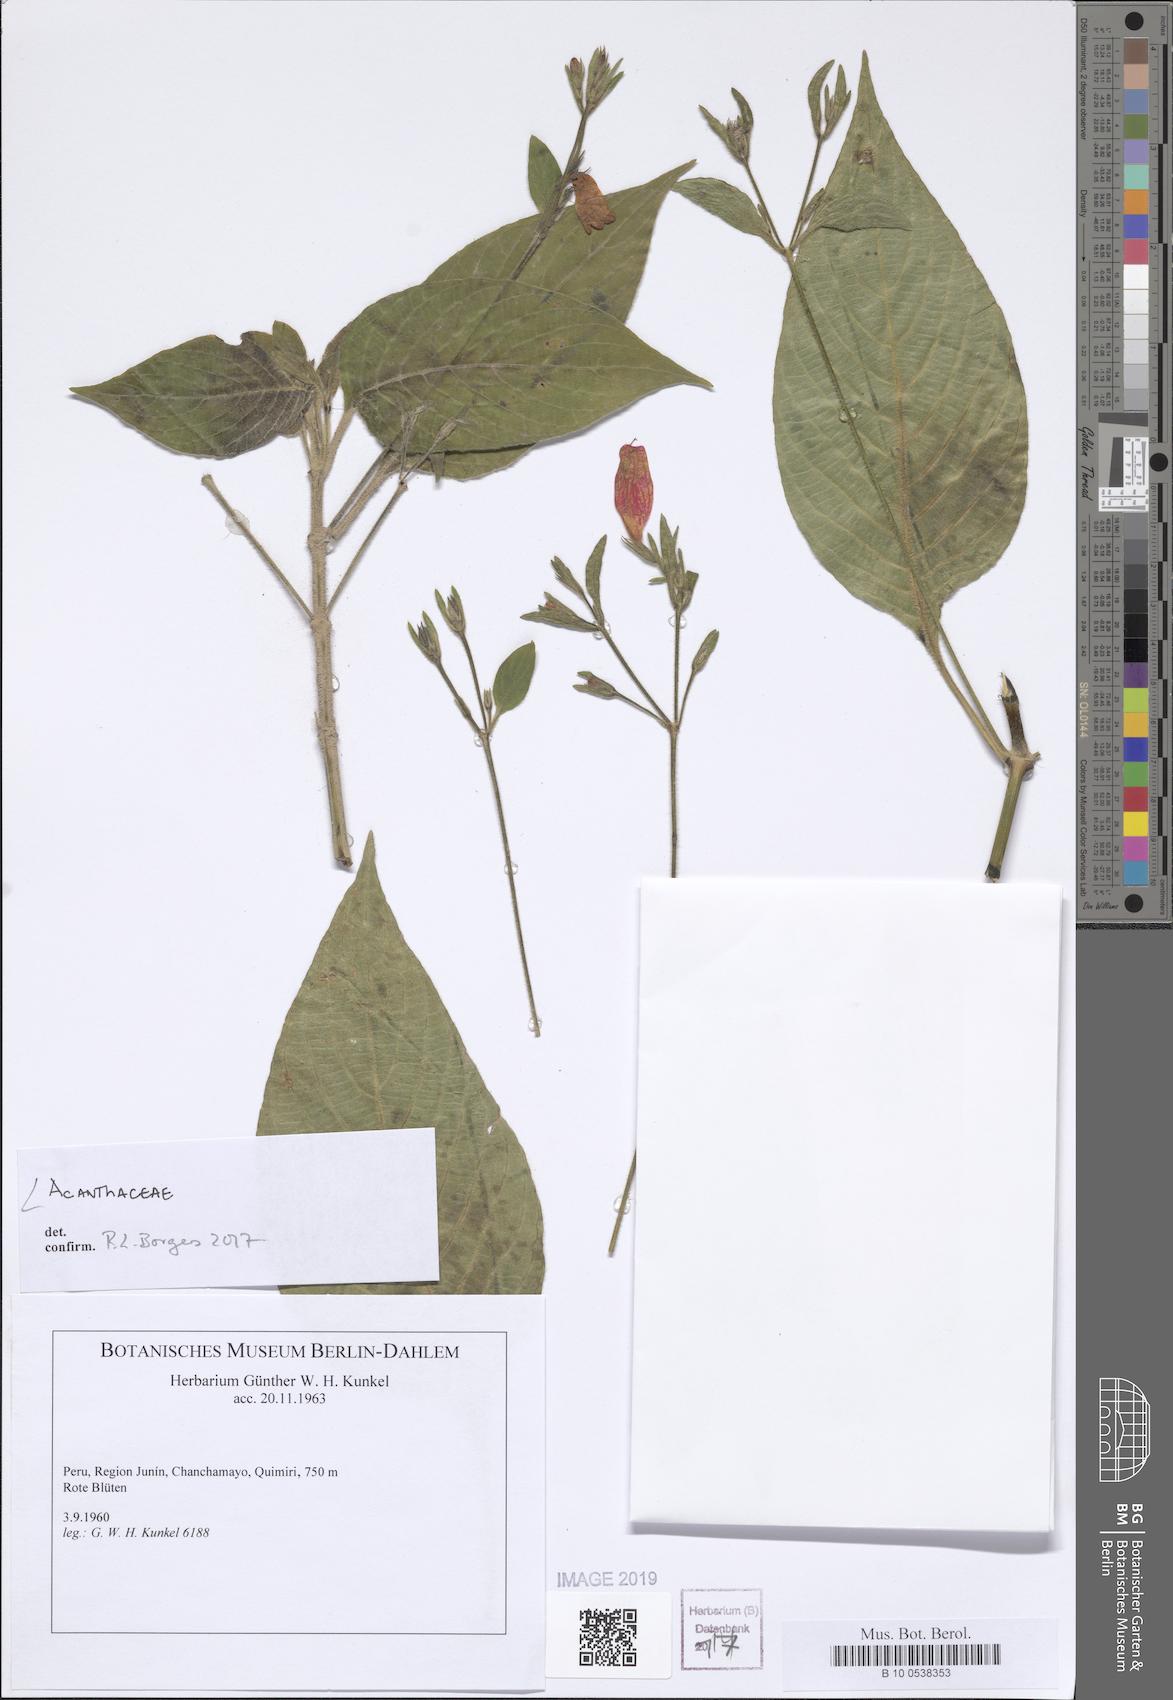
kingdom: Plantae
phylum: Tracheophyta
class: Magnoliopsida
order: Lamiales
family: Acanthaceae
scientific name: Acanthaceae
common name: Acanthaceae
